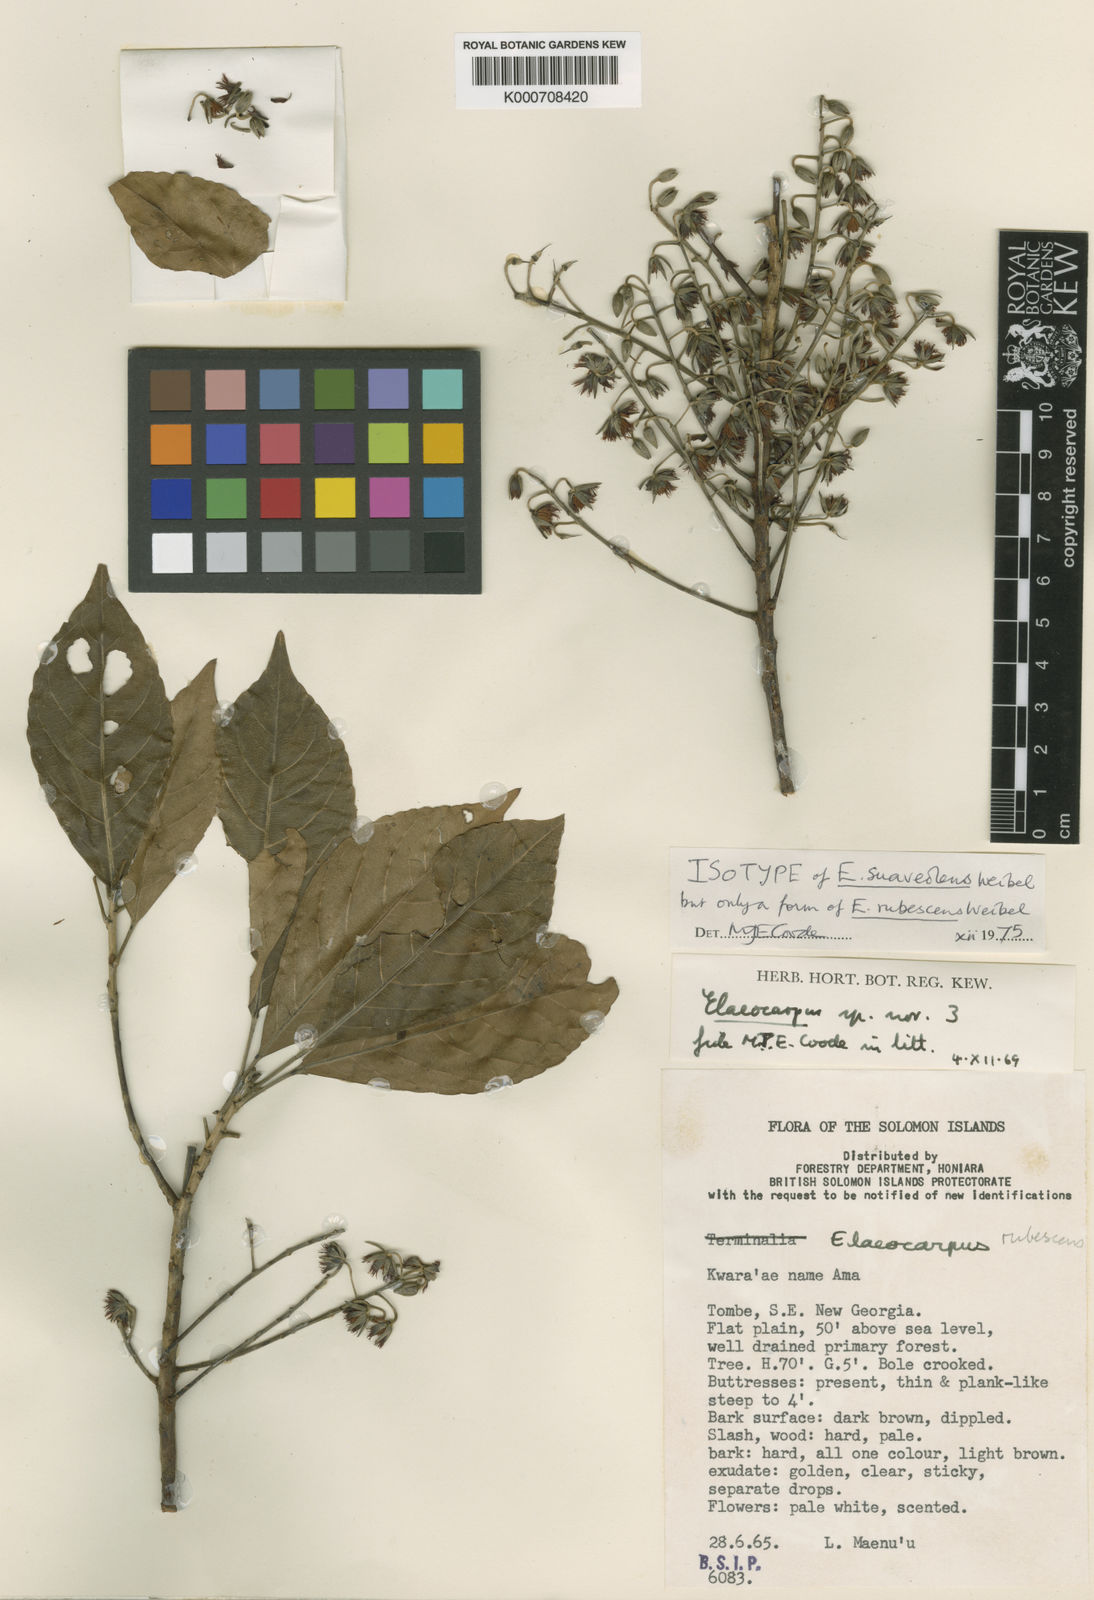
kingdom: Plantae
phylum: Tracheophyta
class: Magnoliopsida
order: Oxalidales
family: Elaeocarpaceae
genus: Elaeocarpus
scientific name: Elaeocarpus rubescens
